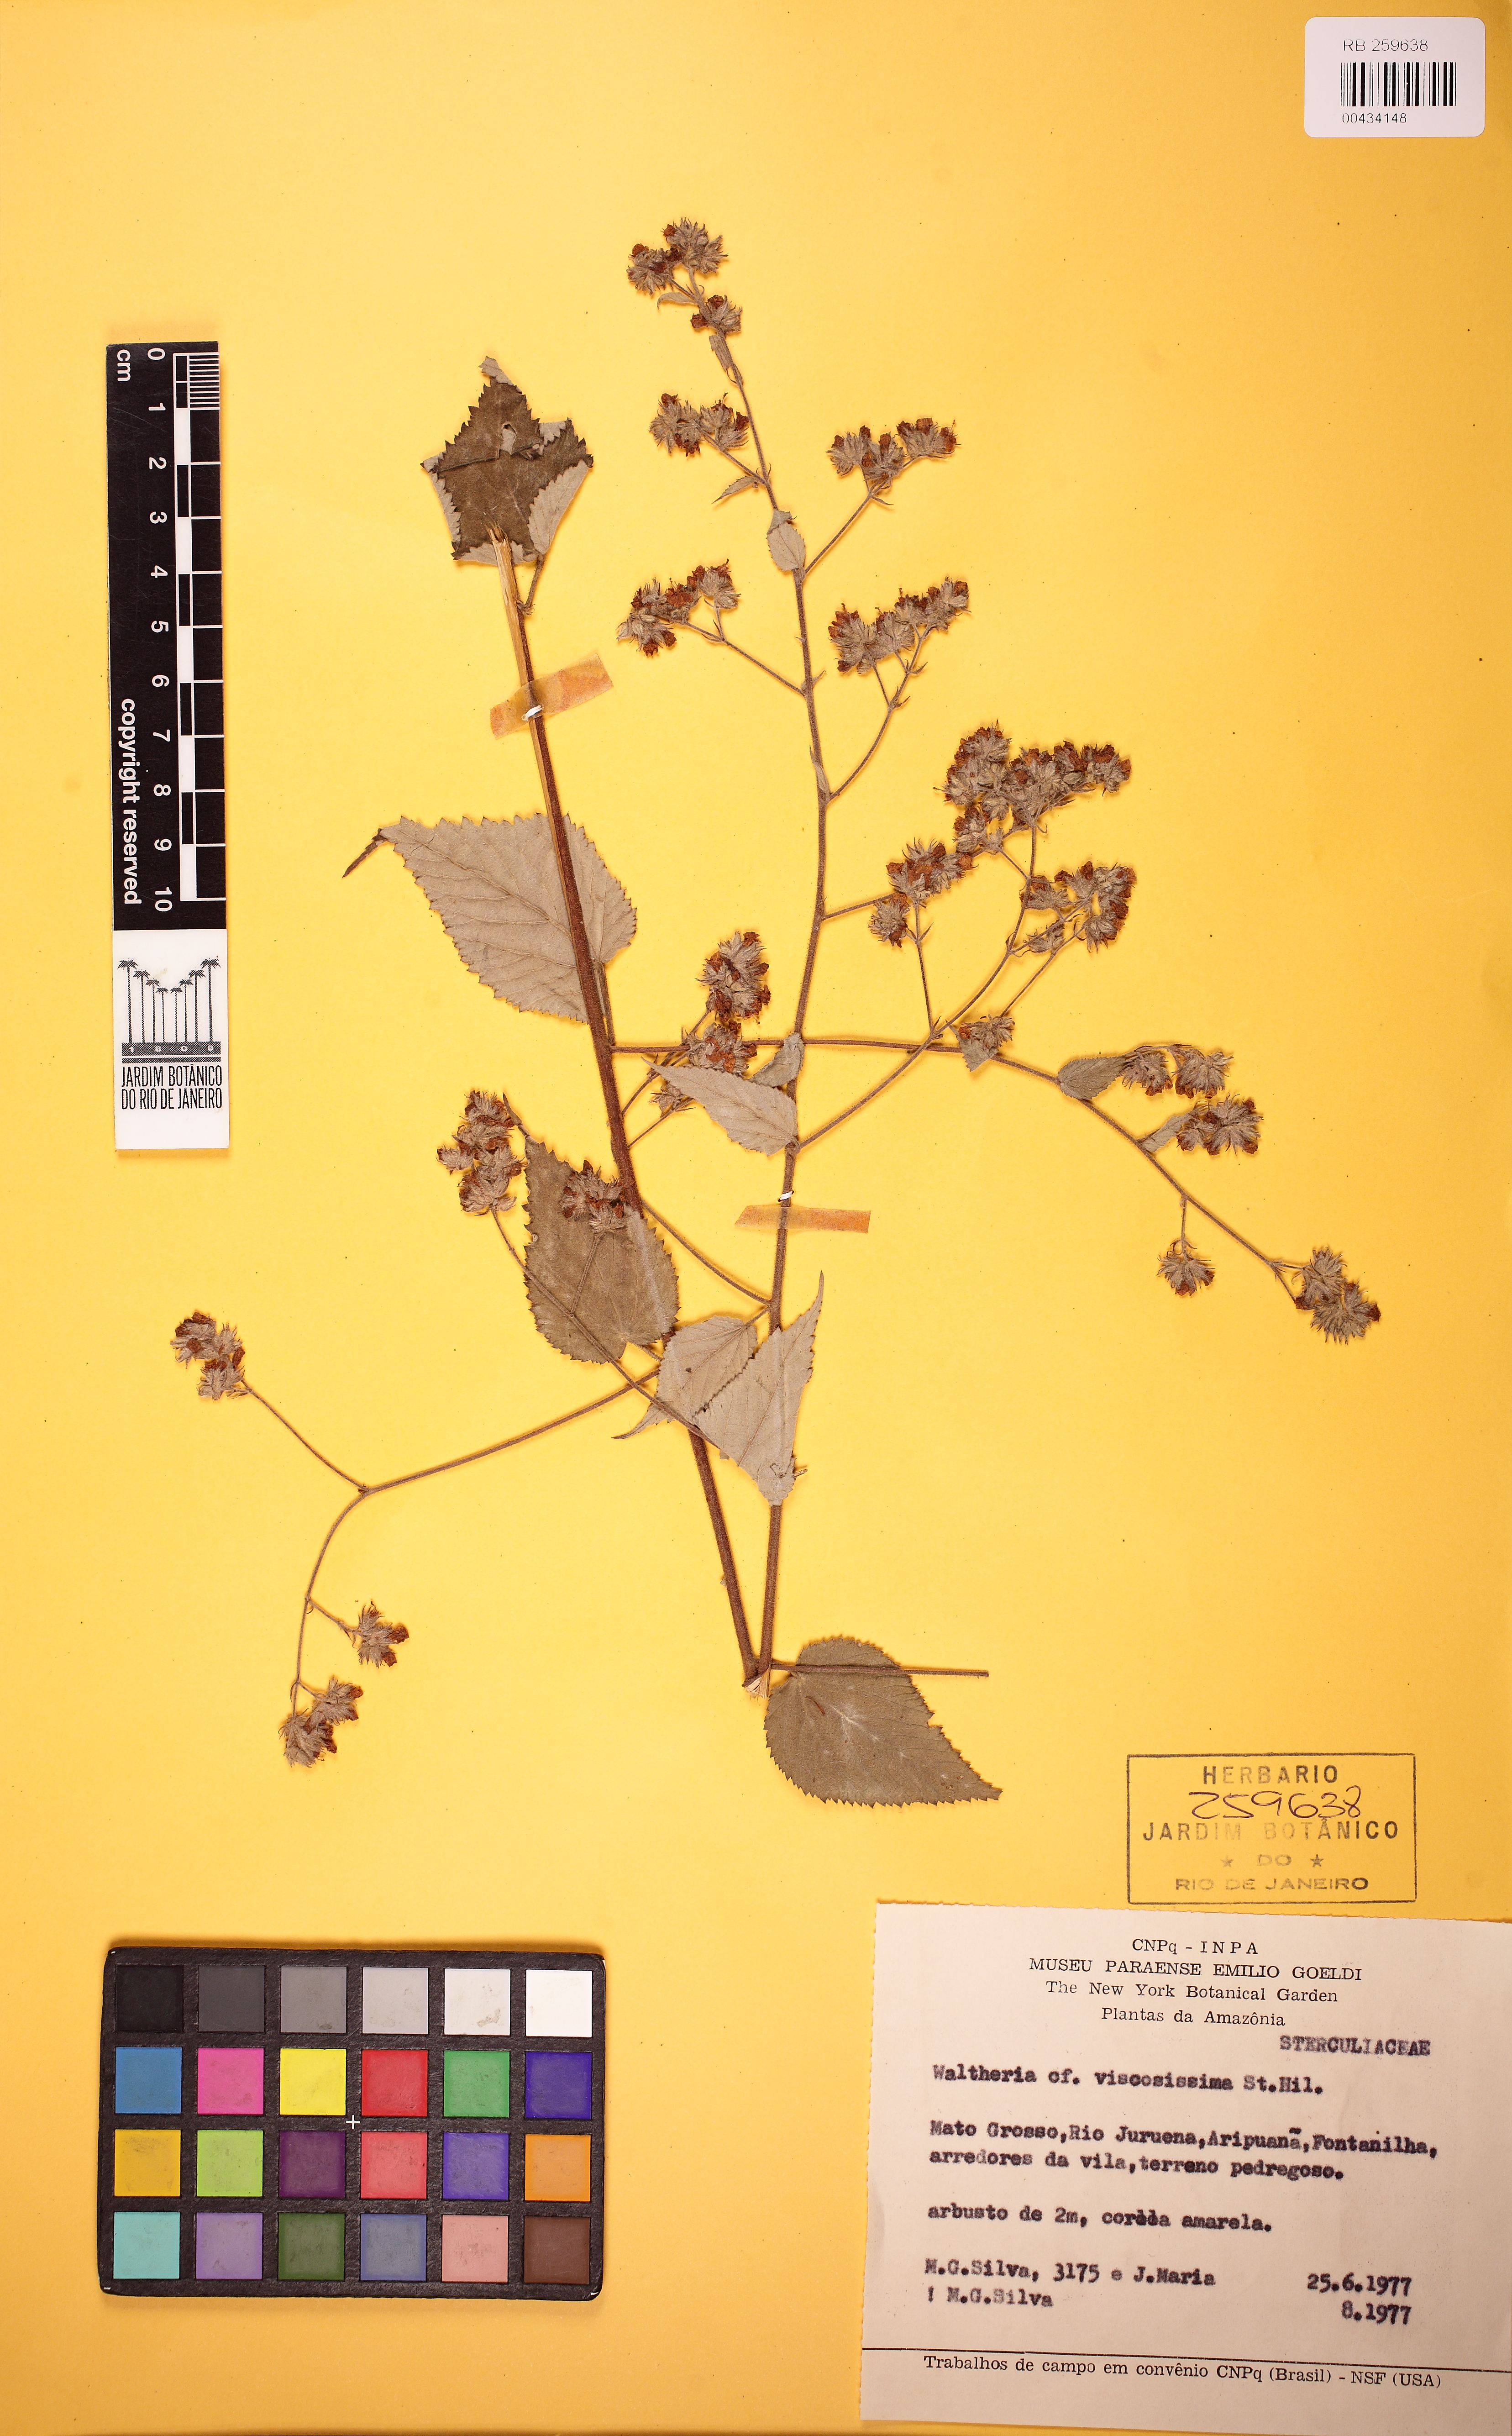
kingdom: Plantae
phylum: Tracheophyta
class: Magnoliopsida
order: Malvales
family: Malvaceae
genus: Waltheria
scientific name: Waltheria viscosissima
